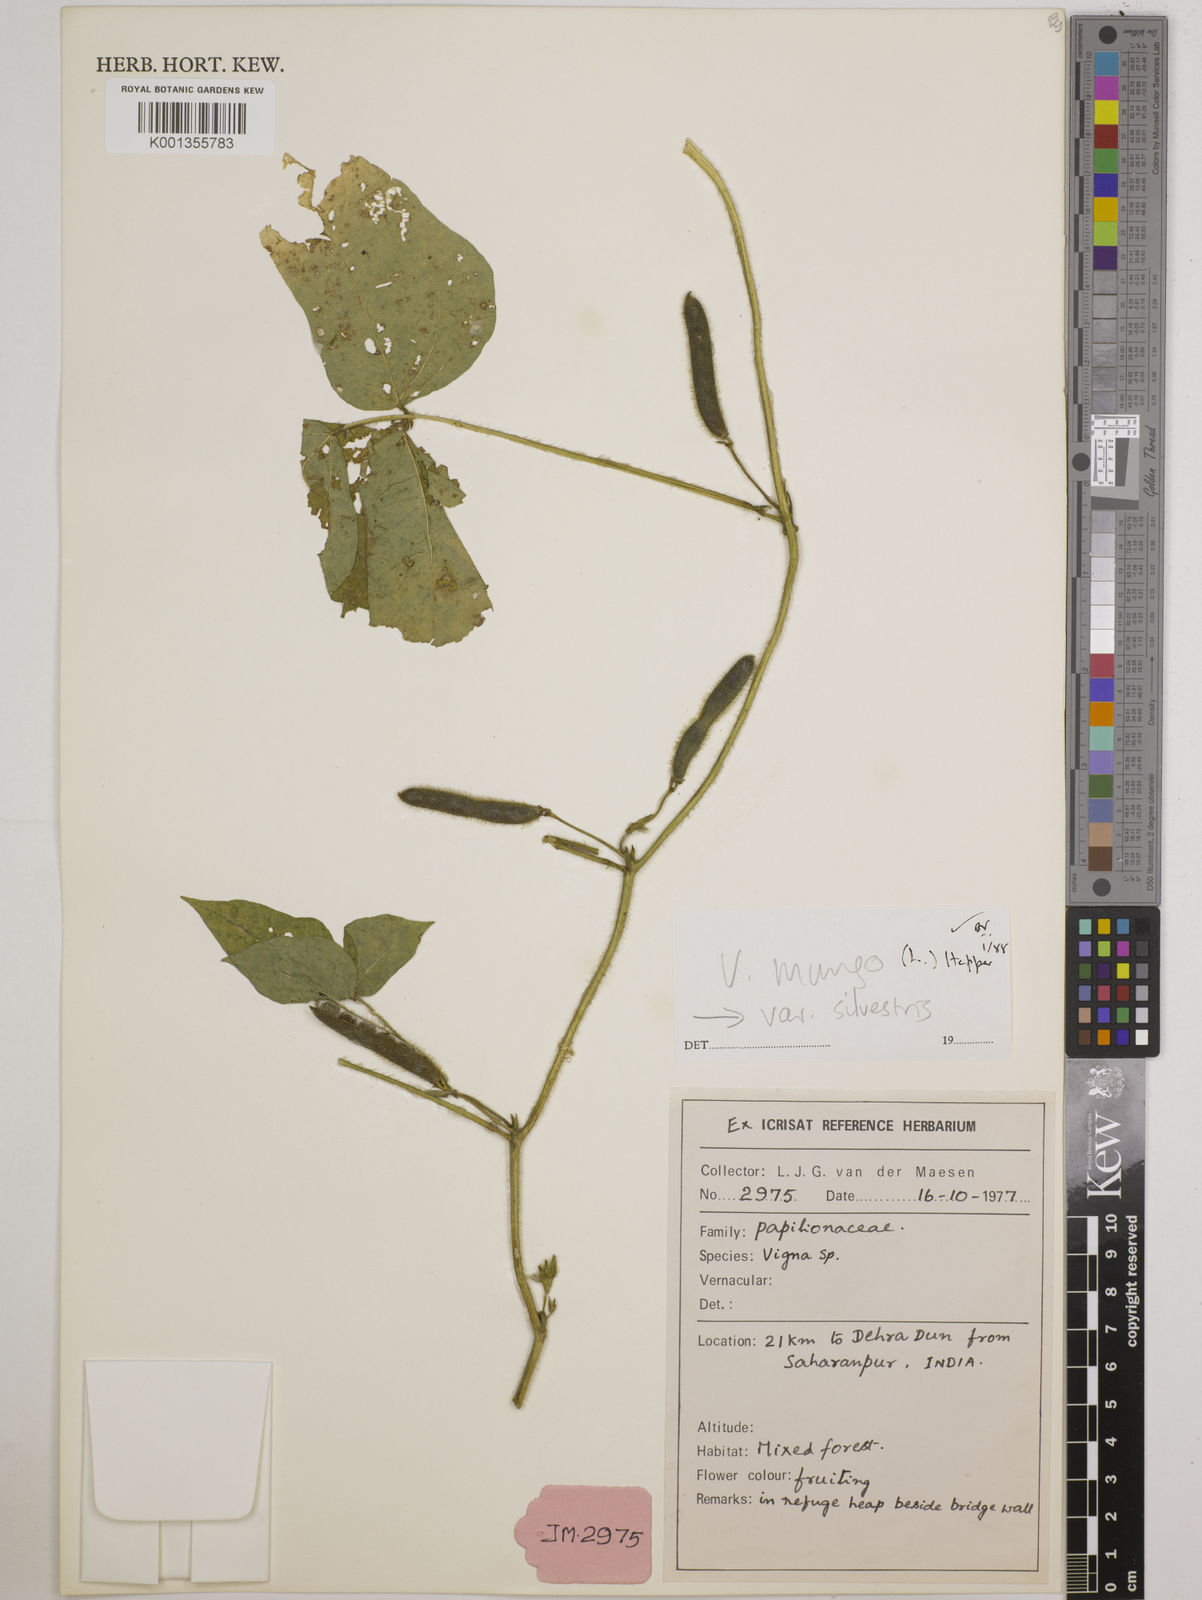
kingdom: Plantae
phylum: Tracheophyta
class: Magnoliopsida
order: Fabales
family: Fabaceae
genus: Vigna
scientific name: Vigna mungo
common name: Black gram
